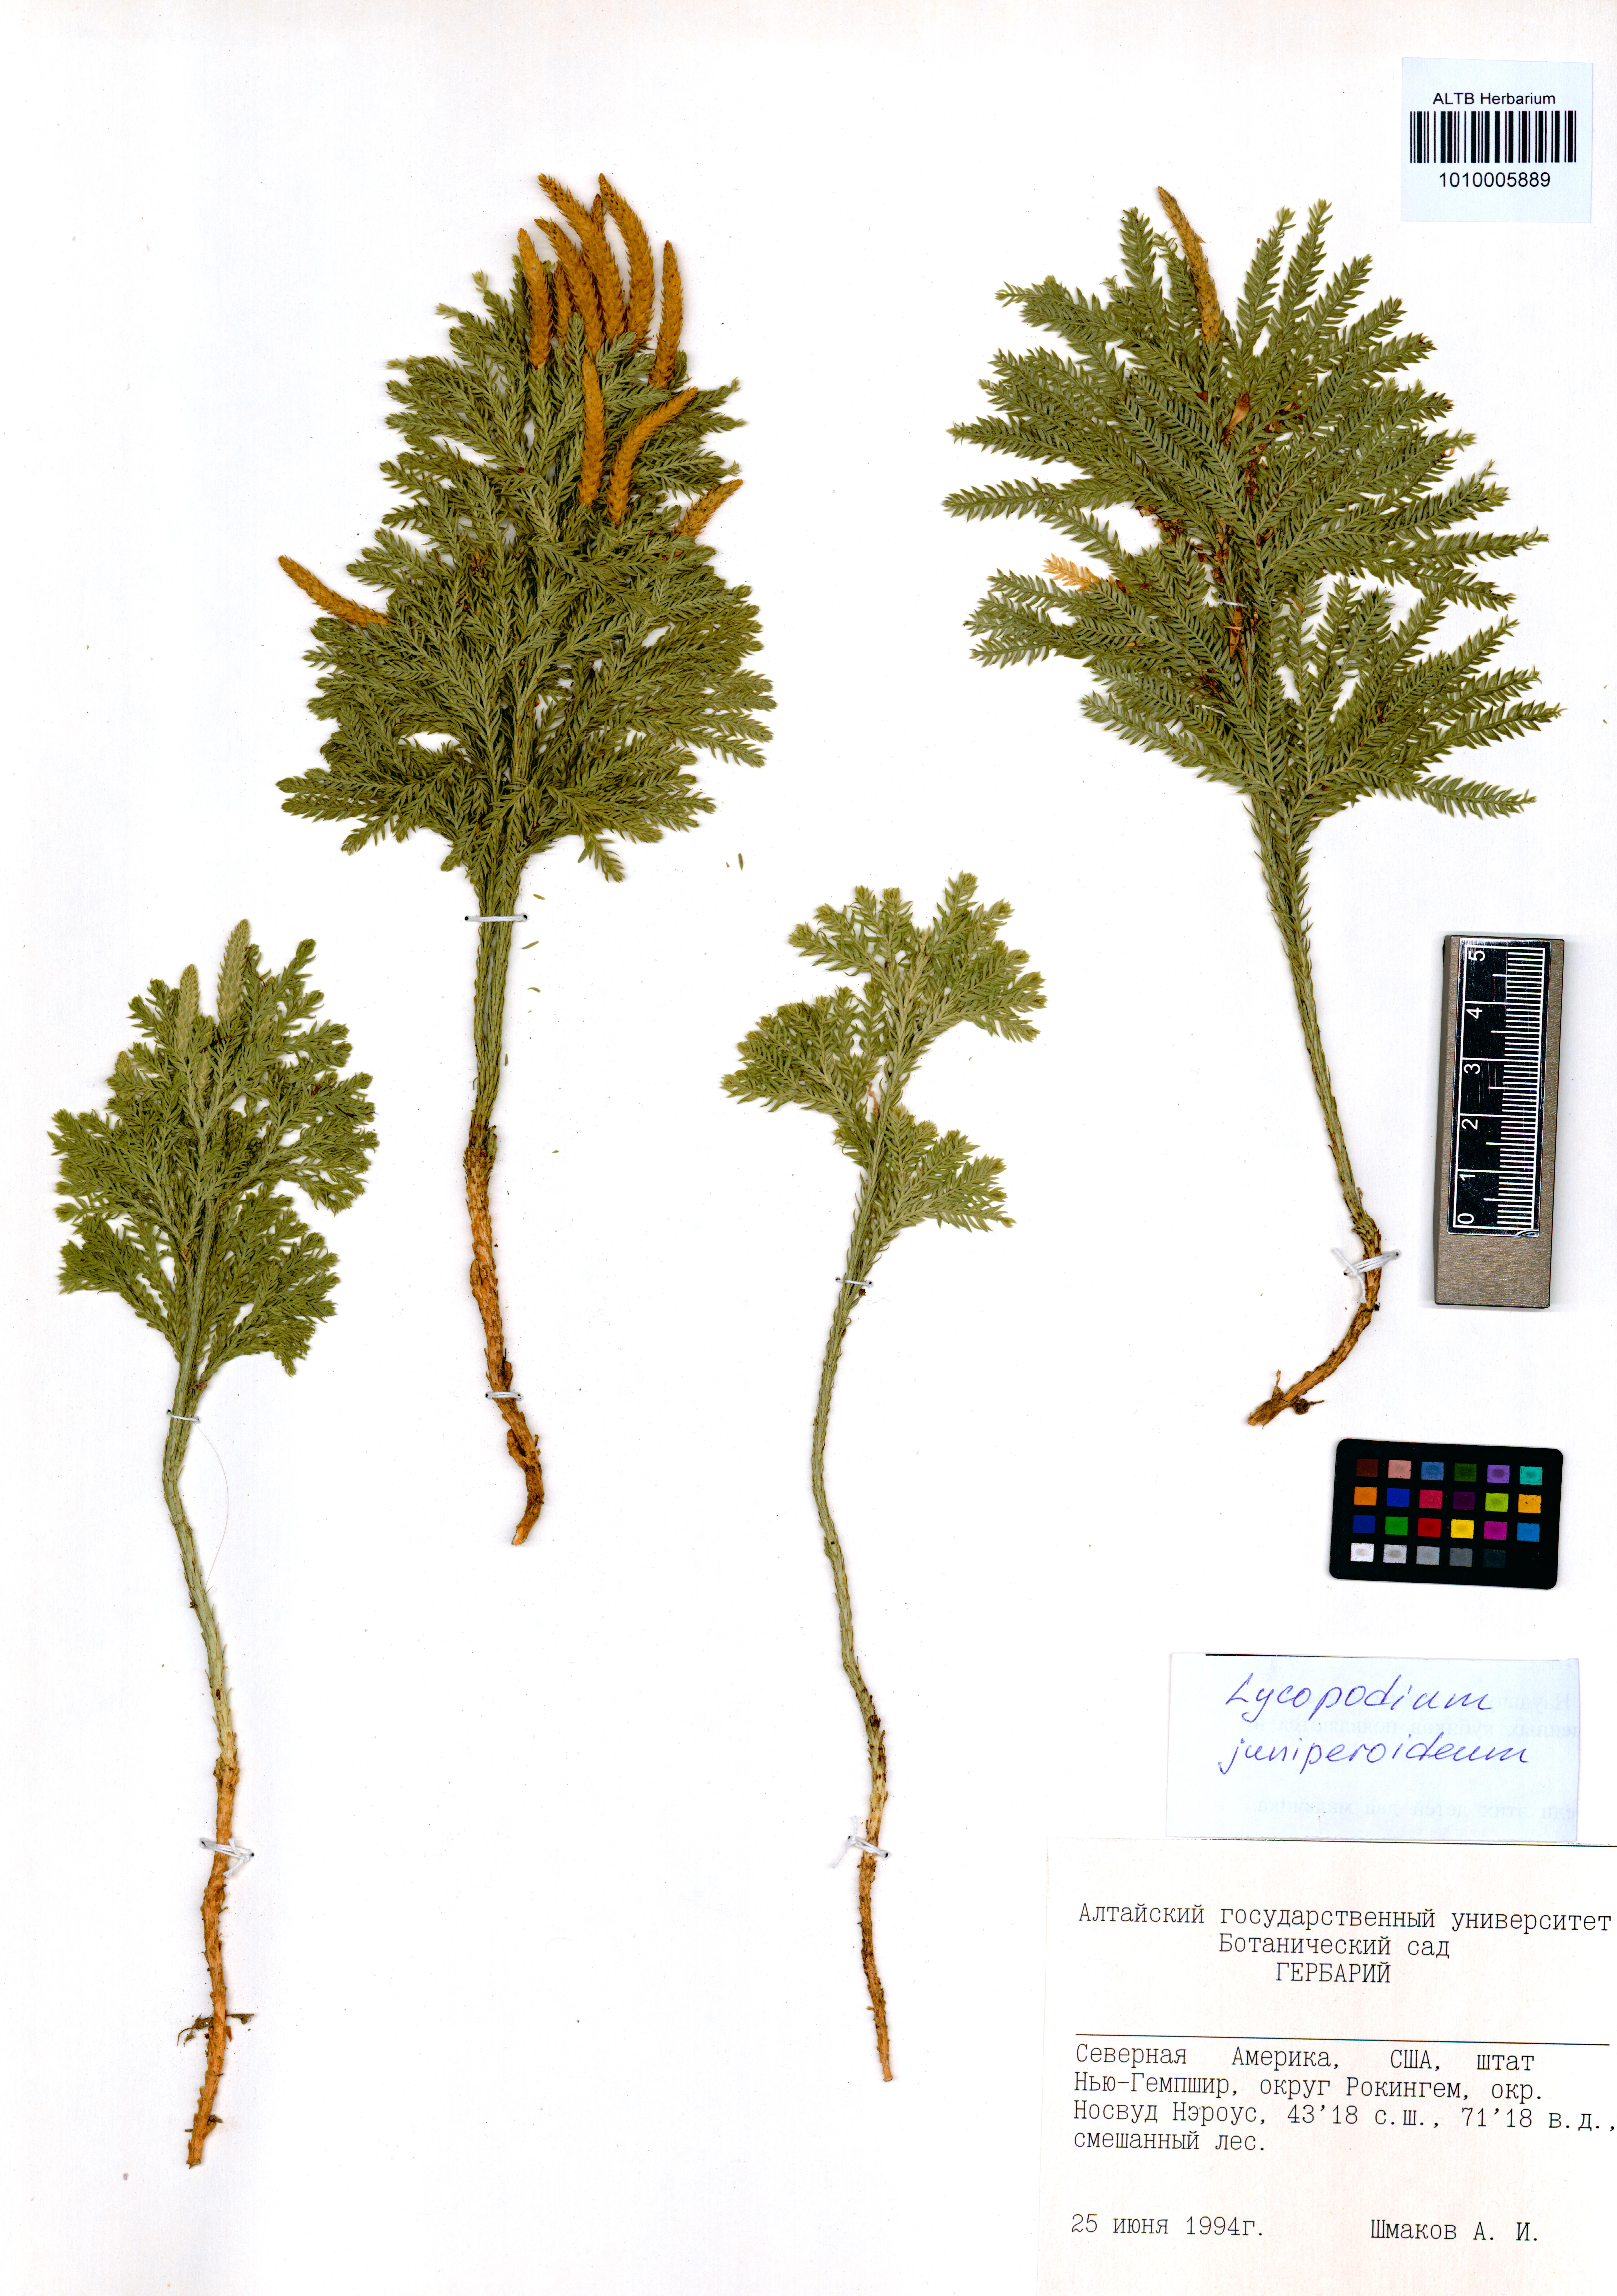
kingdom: Plantae
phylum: Tracheophyta
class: Lycopodiopsida
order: Lycopodiales
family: Lycopodiaceae
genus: Dendrolycopodium
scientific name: Dendrolycopodium juniperoideum
